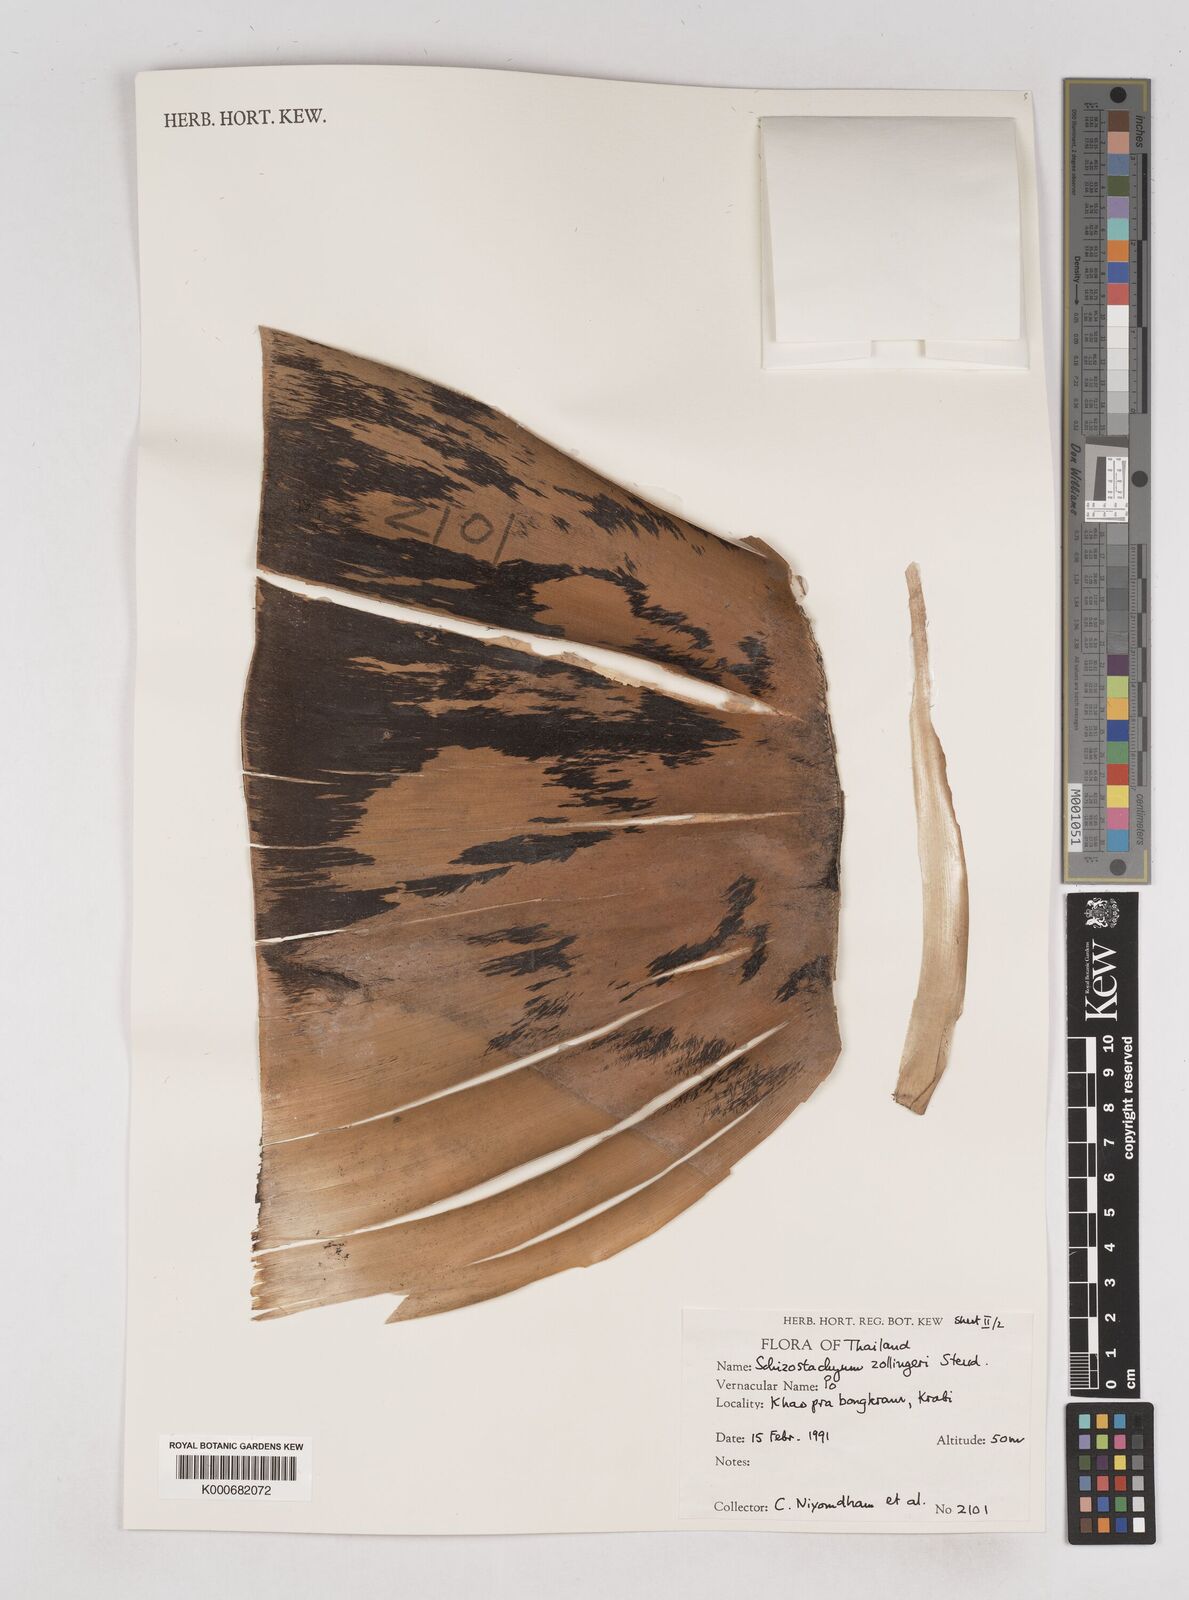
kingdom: Plantae
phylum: Tracheophyta
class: Liliopsida
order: Poales
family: Poaceae
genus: Schizostachyum
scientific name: Schizostachyum zollingeri
